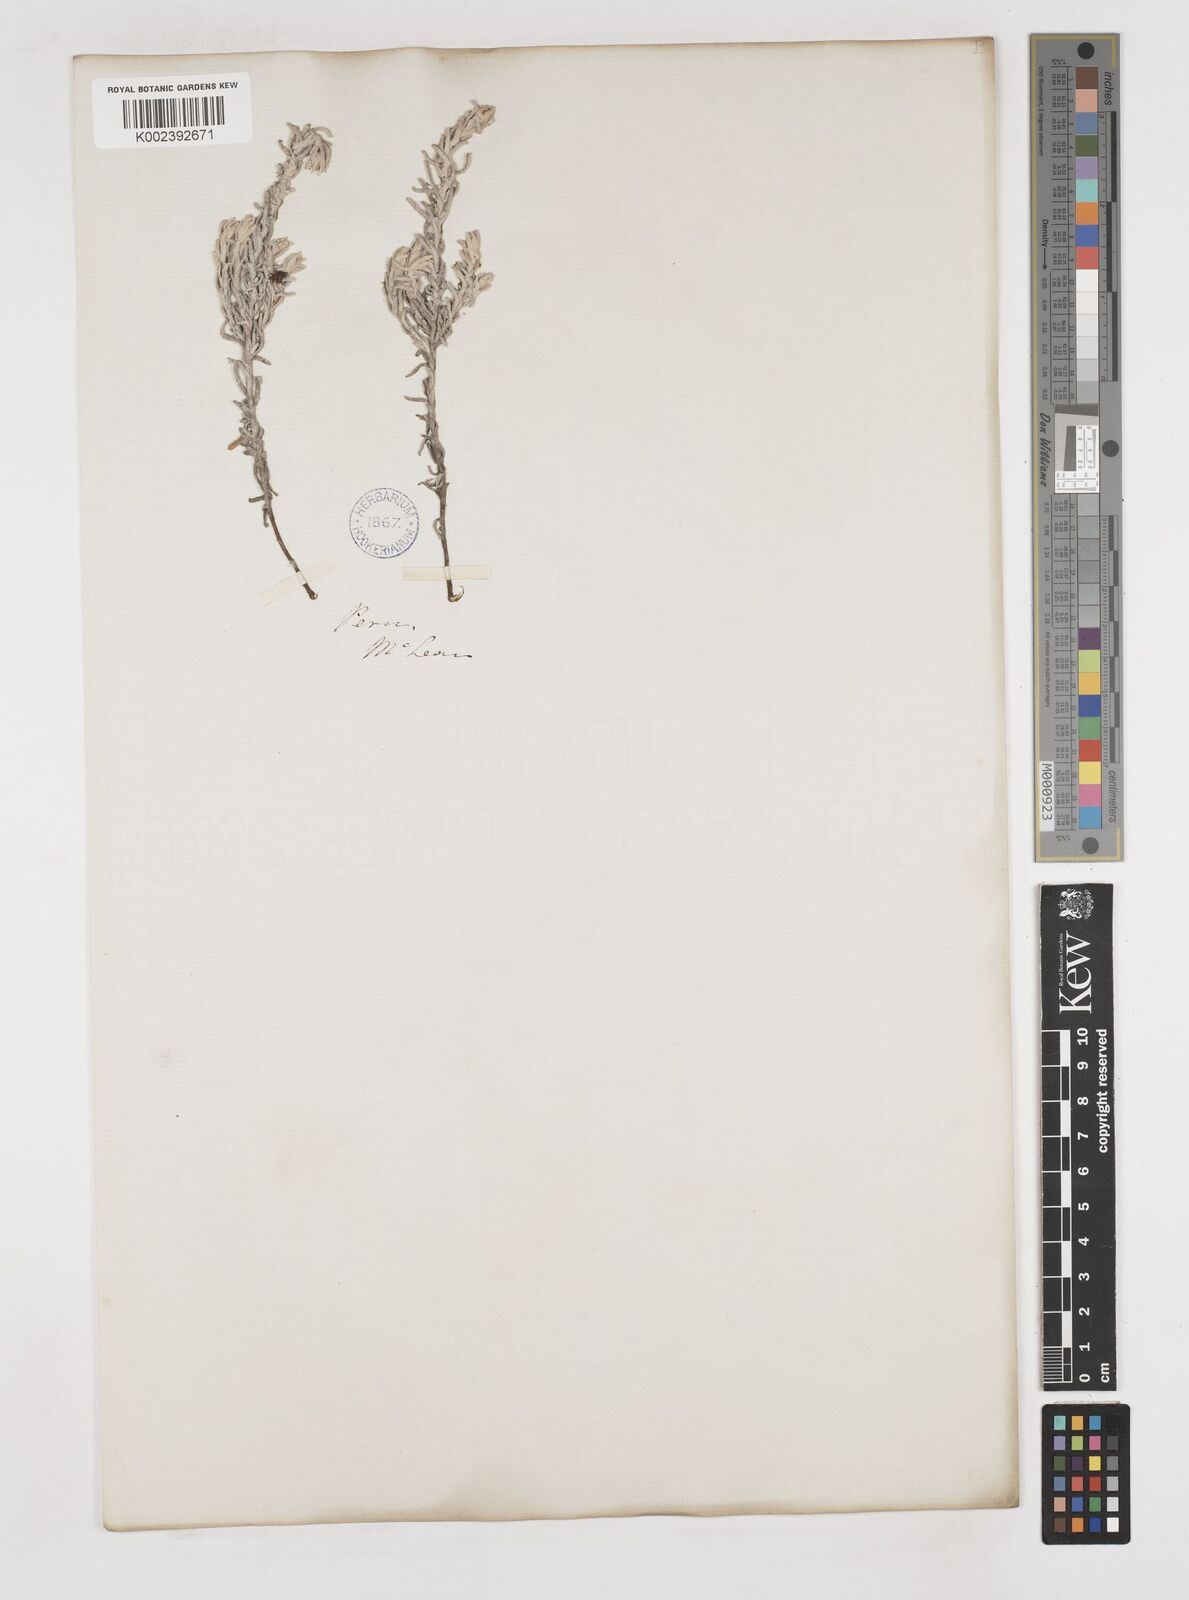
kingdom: Plantae
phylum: Tracheophyta
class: Magnoliopsida
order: Asterales
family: Asteraceae
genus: Gnaphalium
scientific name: Gnaphalium
